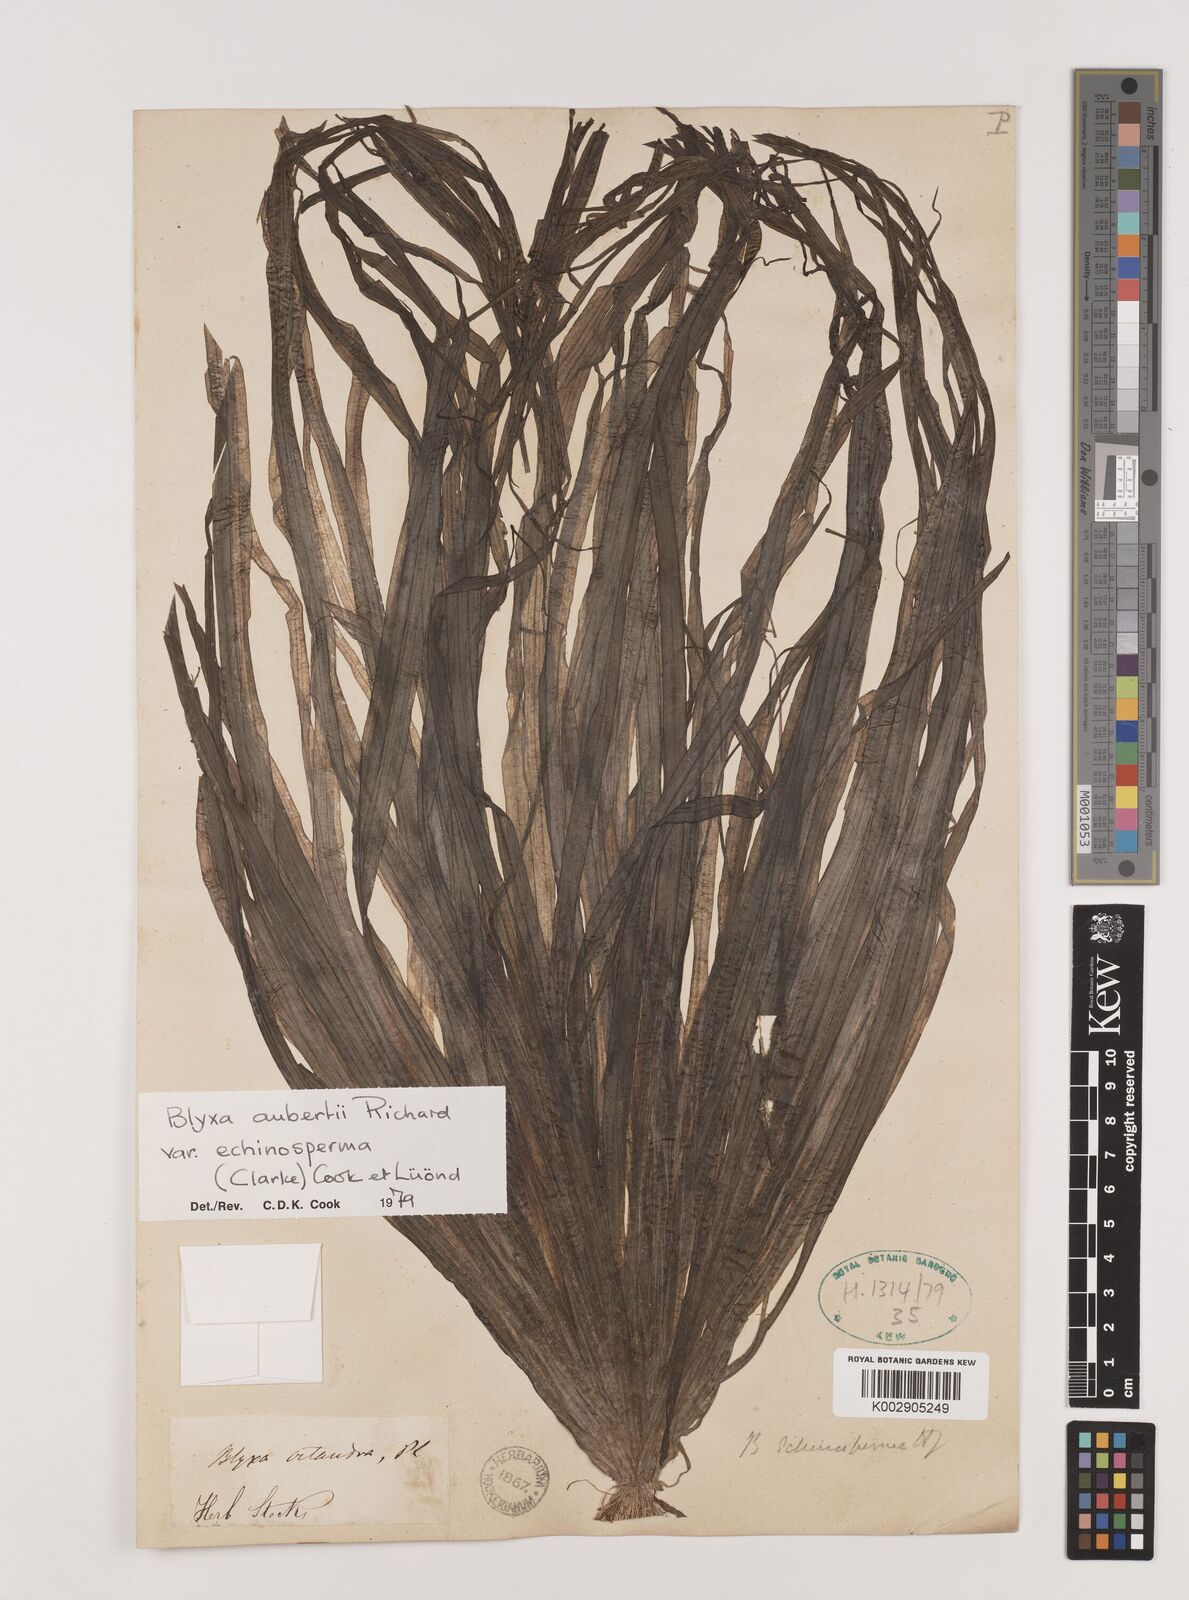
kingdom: Plantae
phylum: Tracheophyta
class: Liliopsida
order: Alismatales
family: Hydrocharitaceae
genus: Blyxa
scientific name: Blyxa echinosperma
